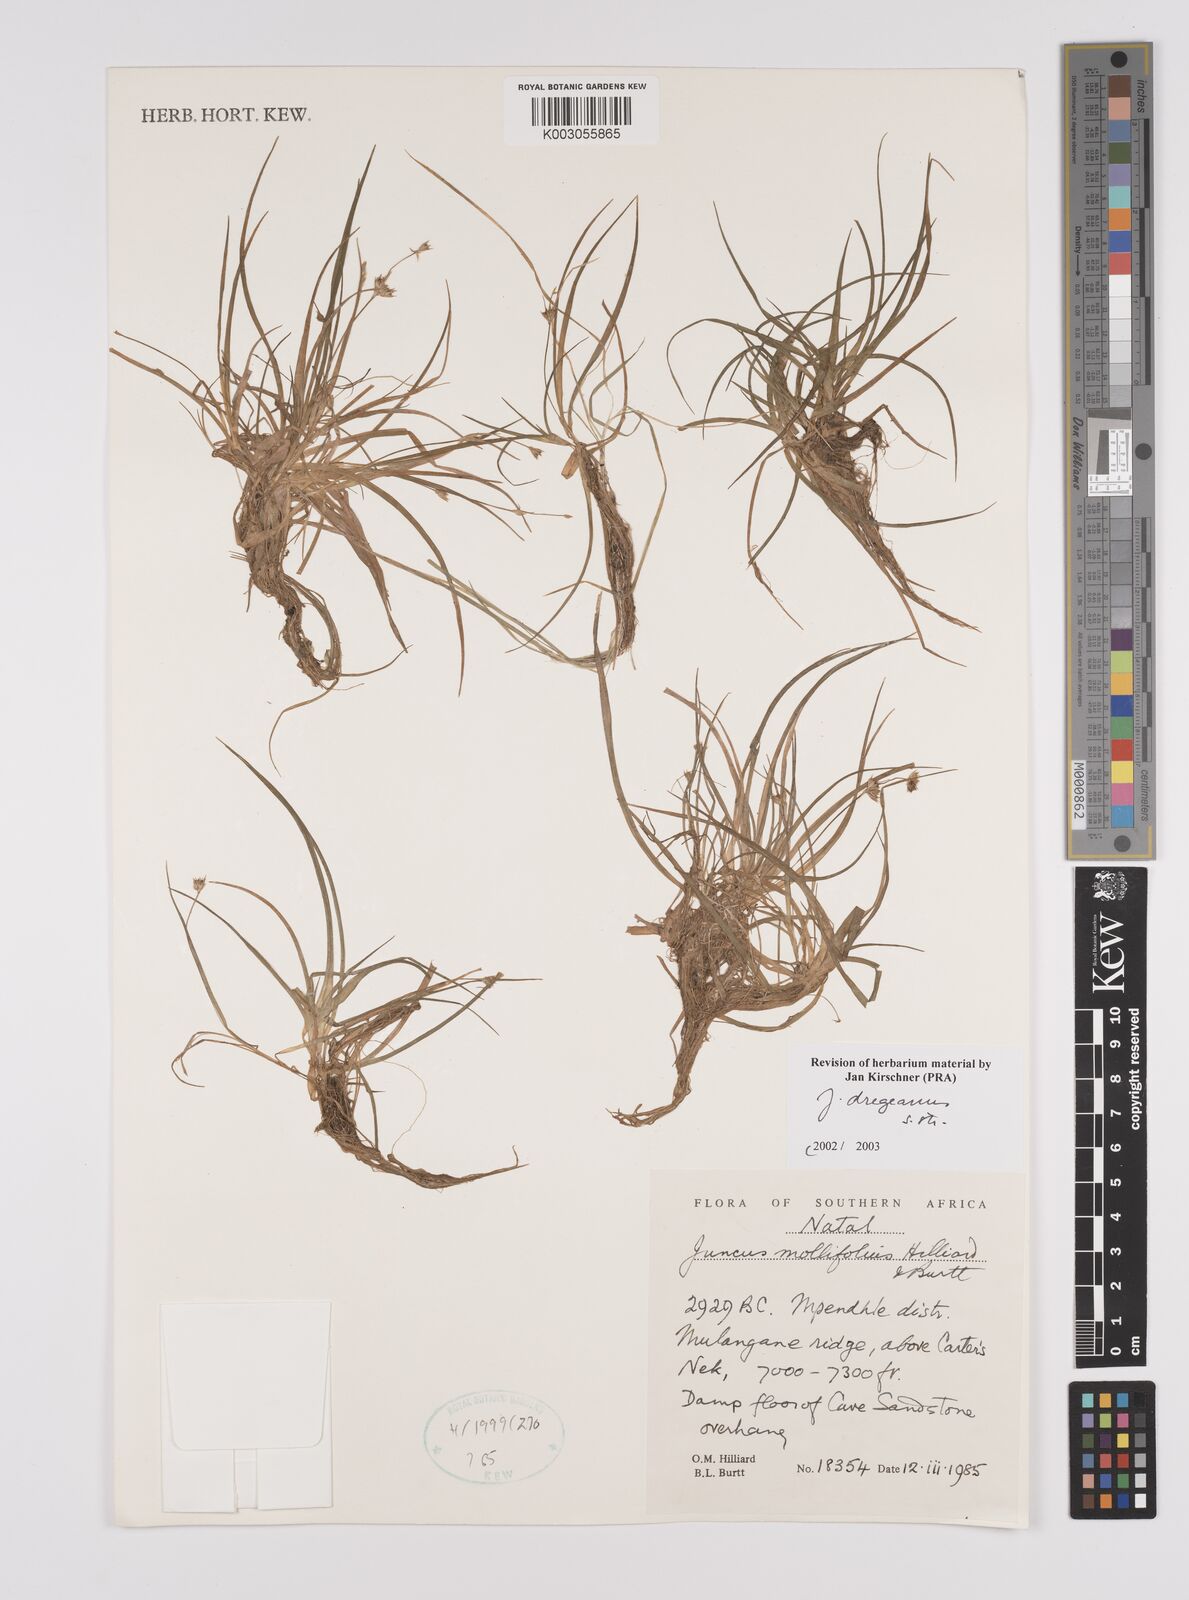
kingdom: Plantae
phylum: Tracheophyta
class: Liliopsida
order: Poales
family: Juncaceae
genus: Juncus
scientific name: Juncus dregeanus
